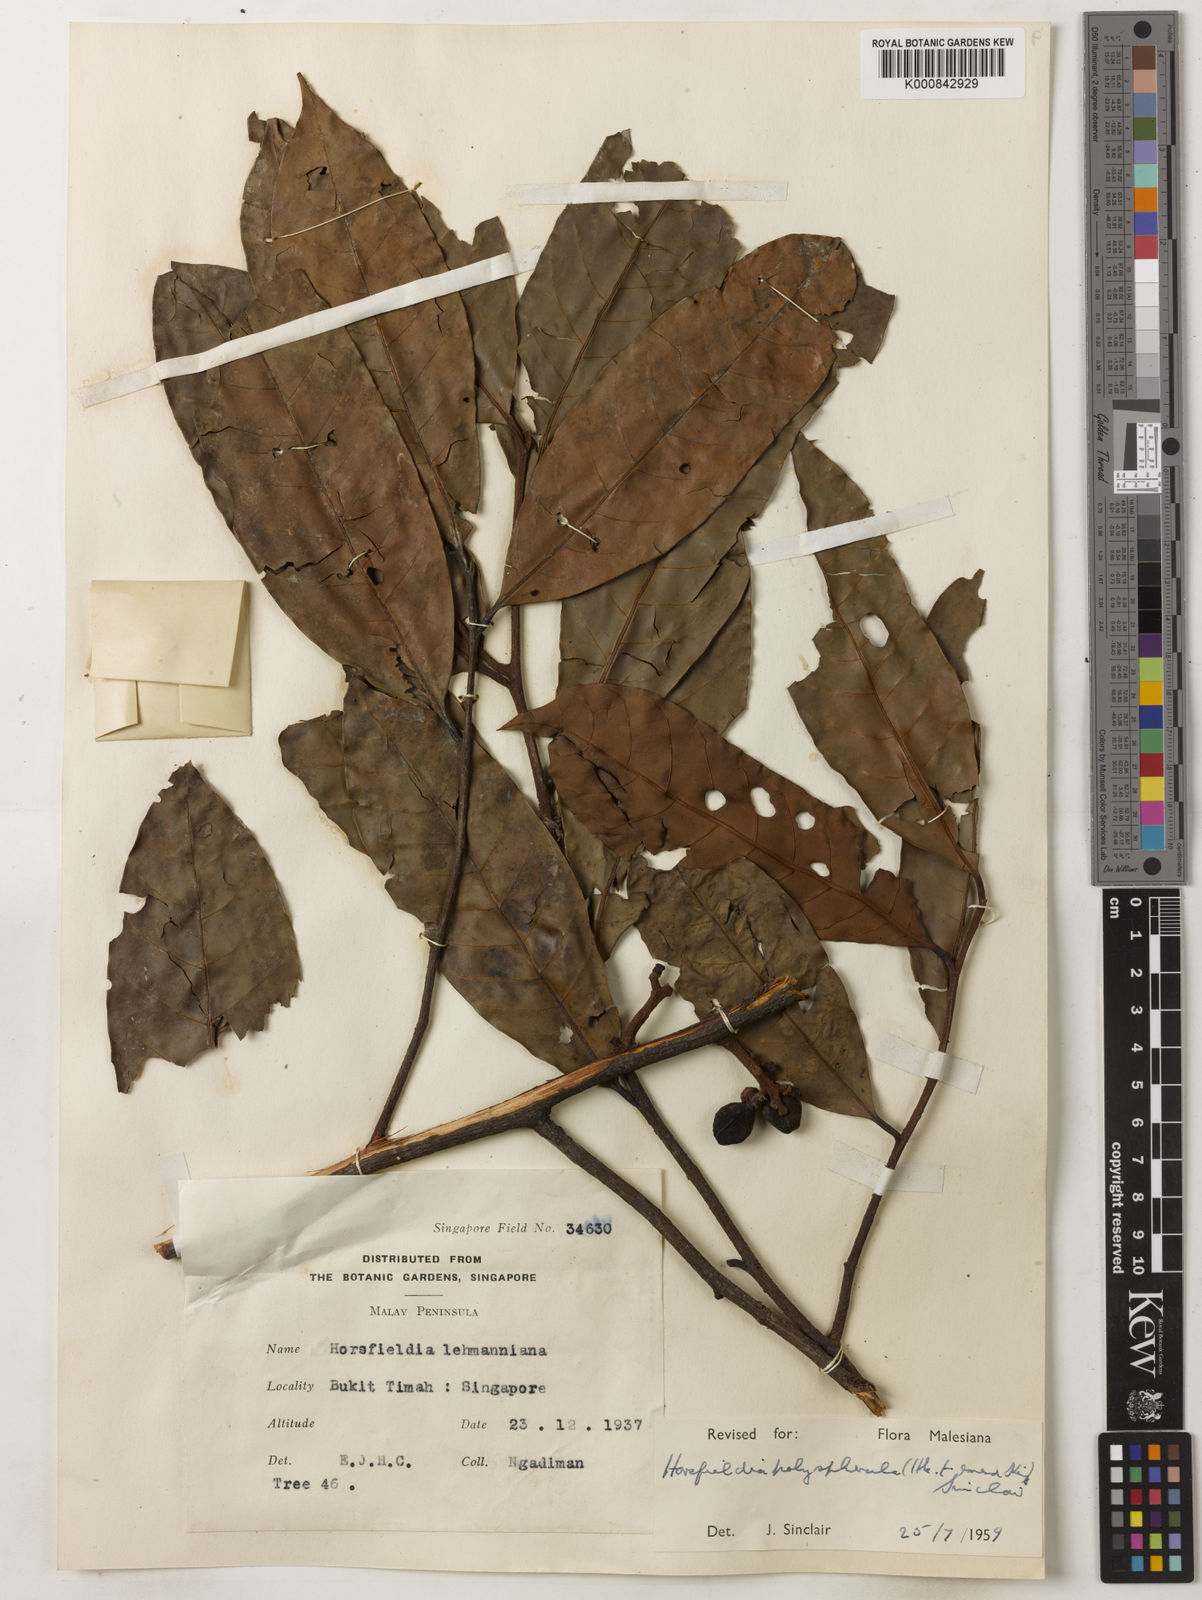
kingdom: Plantae
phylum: Tracheophyta
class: Magnoliopsida
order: Magnoliales
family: Myristicaceae
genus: Horsfieldia
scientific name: Horsfieldia polyspherula
